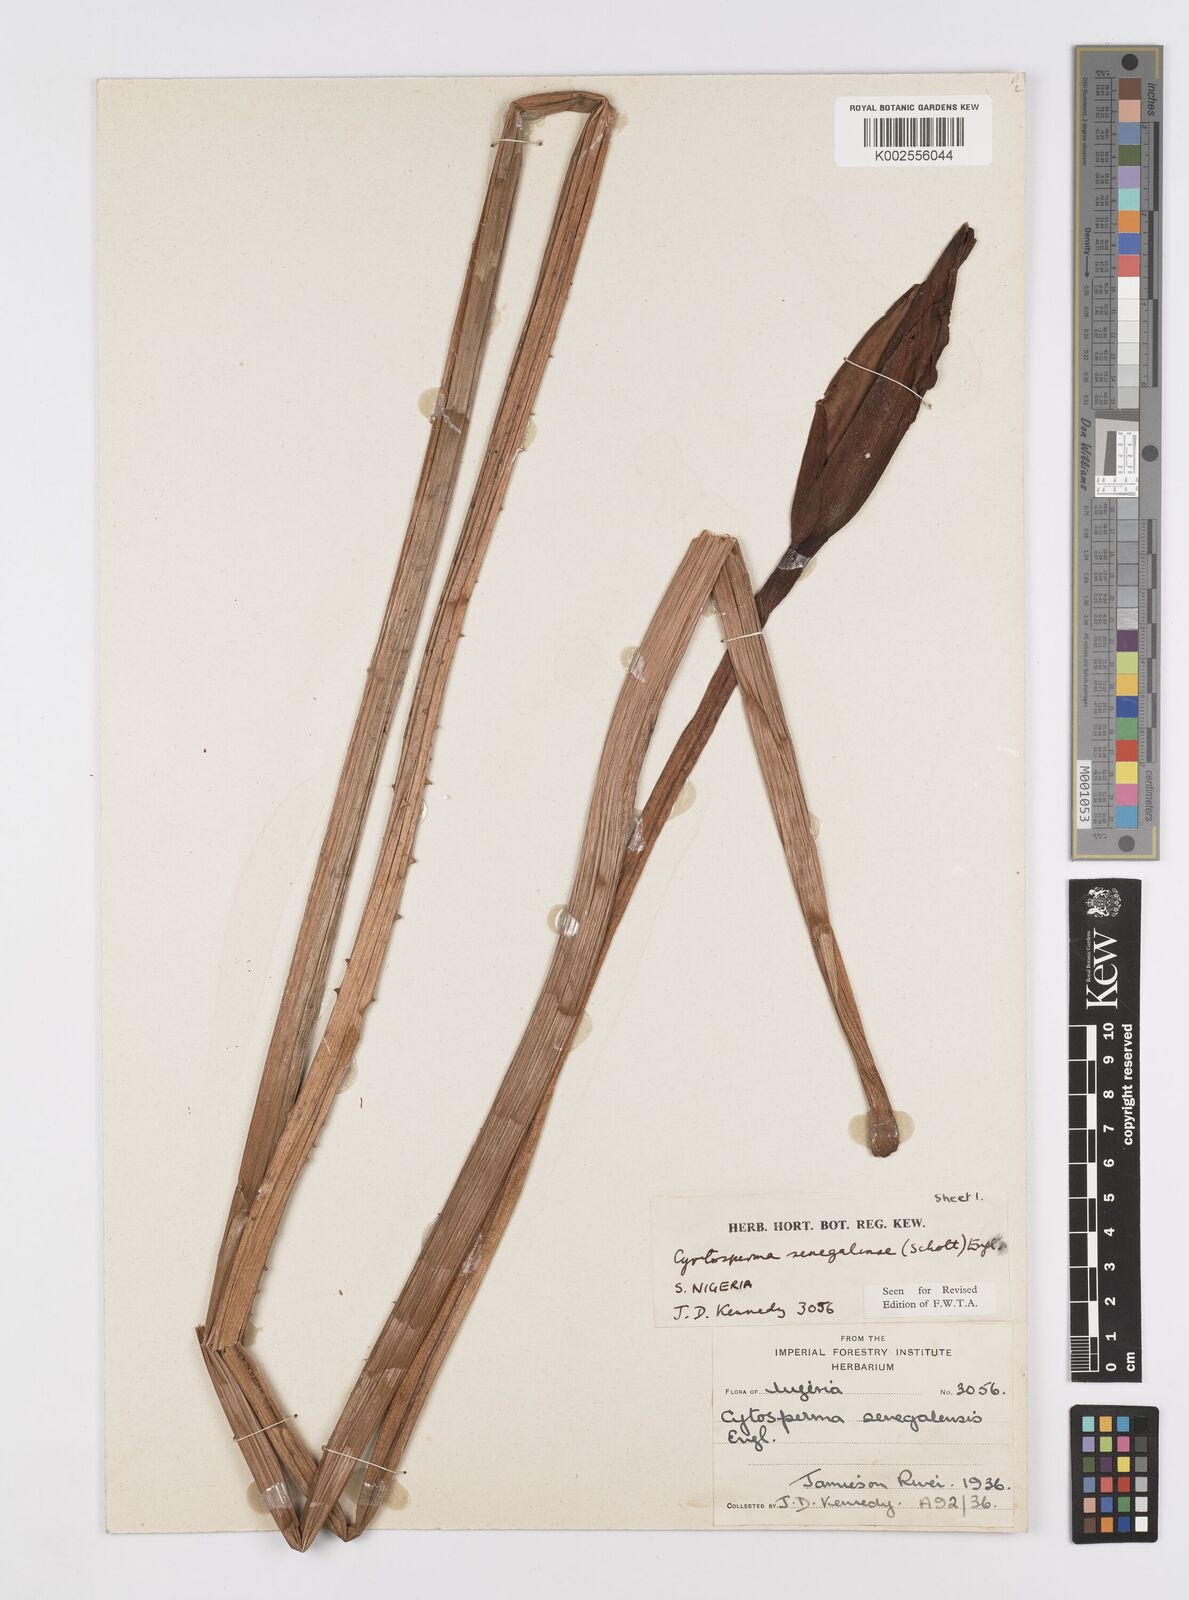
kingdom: Plantae
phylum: Tracheophyta
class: Liliopsida
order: Alismatales
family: Araceae
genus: Lasimorpha
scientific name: Lasimorpha senegalensis
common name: Swamp arum
